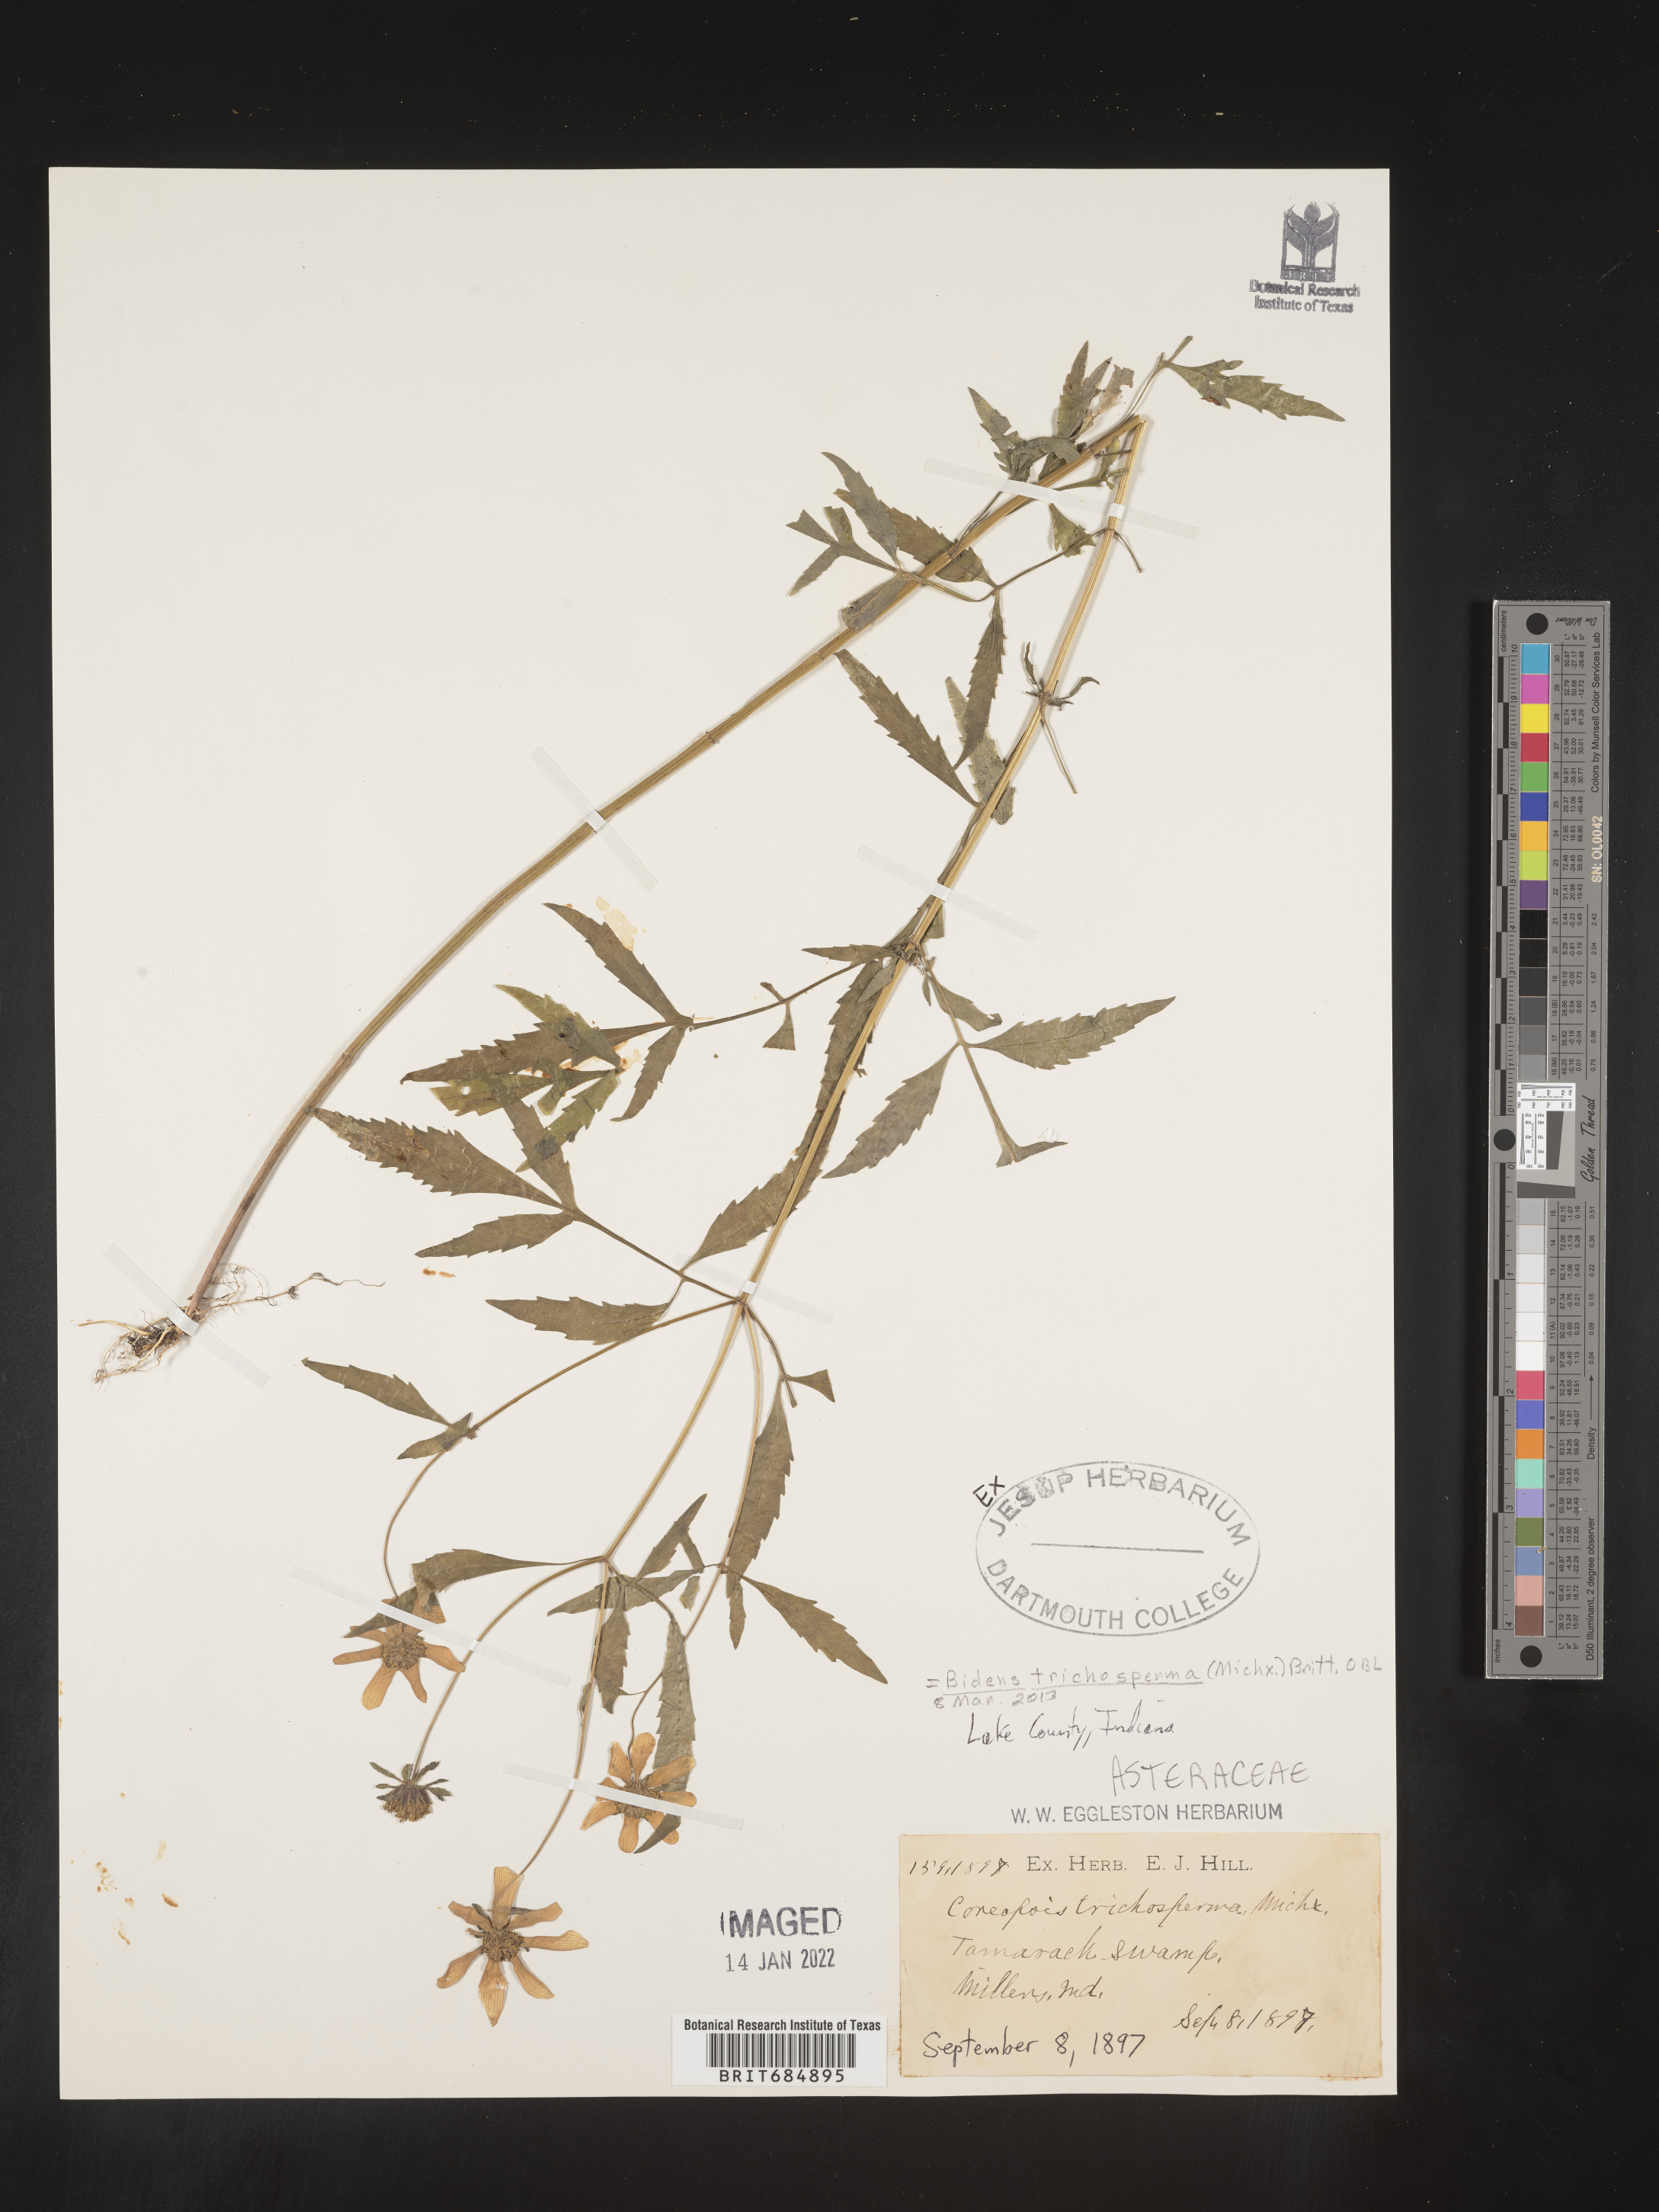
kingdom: Plantae
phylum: Tracheophyta
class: Magnoliopsida
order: Asterales
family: Asteraceae
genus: Bidens
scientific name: Bidens trichosperma
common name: Crowned beggarticks
